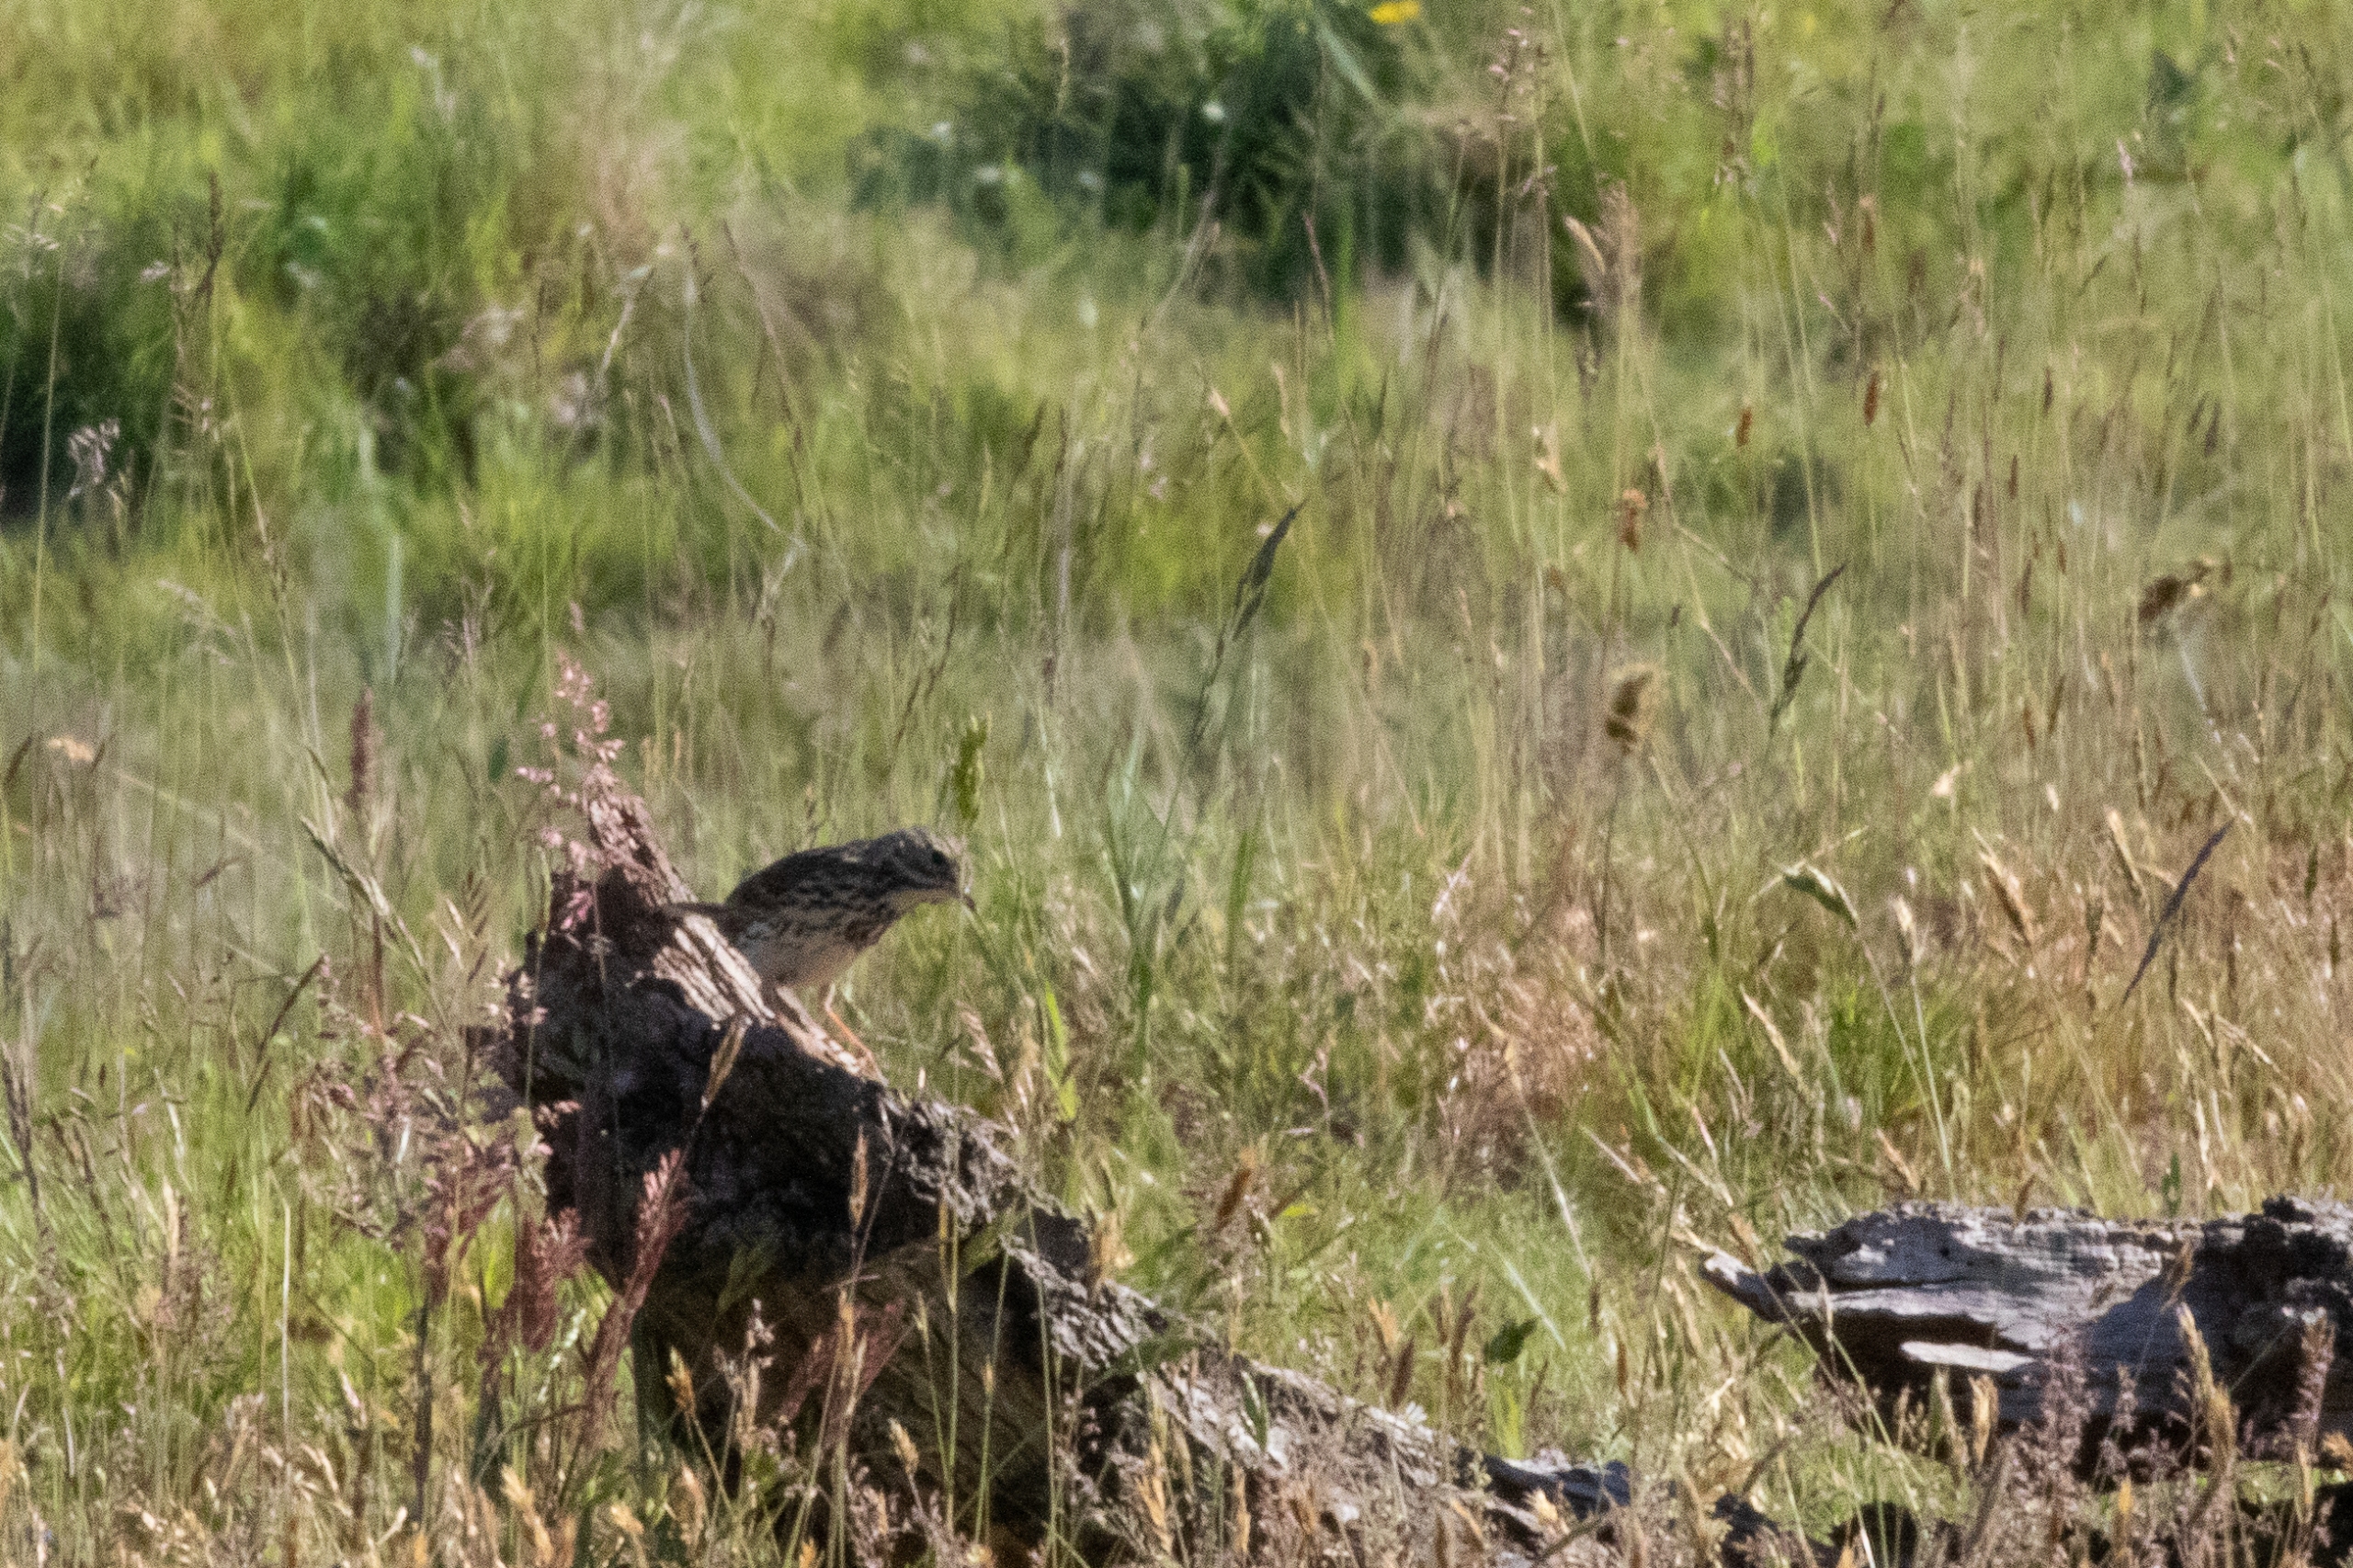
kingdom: Animalia
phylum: Chordata
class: Aves
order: Passeriformes
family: Motacillidae
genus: Anthus
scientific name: Anthus pratensis
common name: Engpiber
